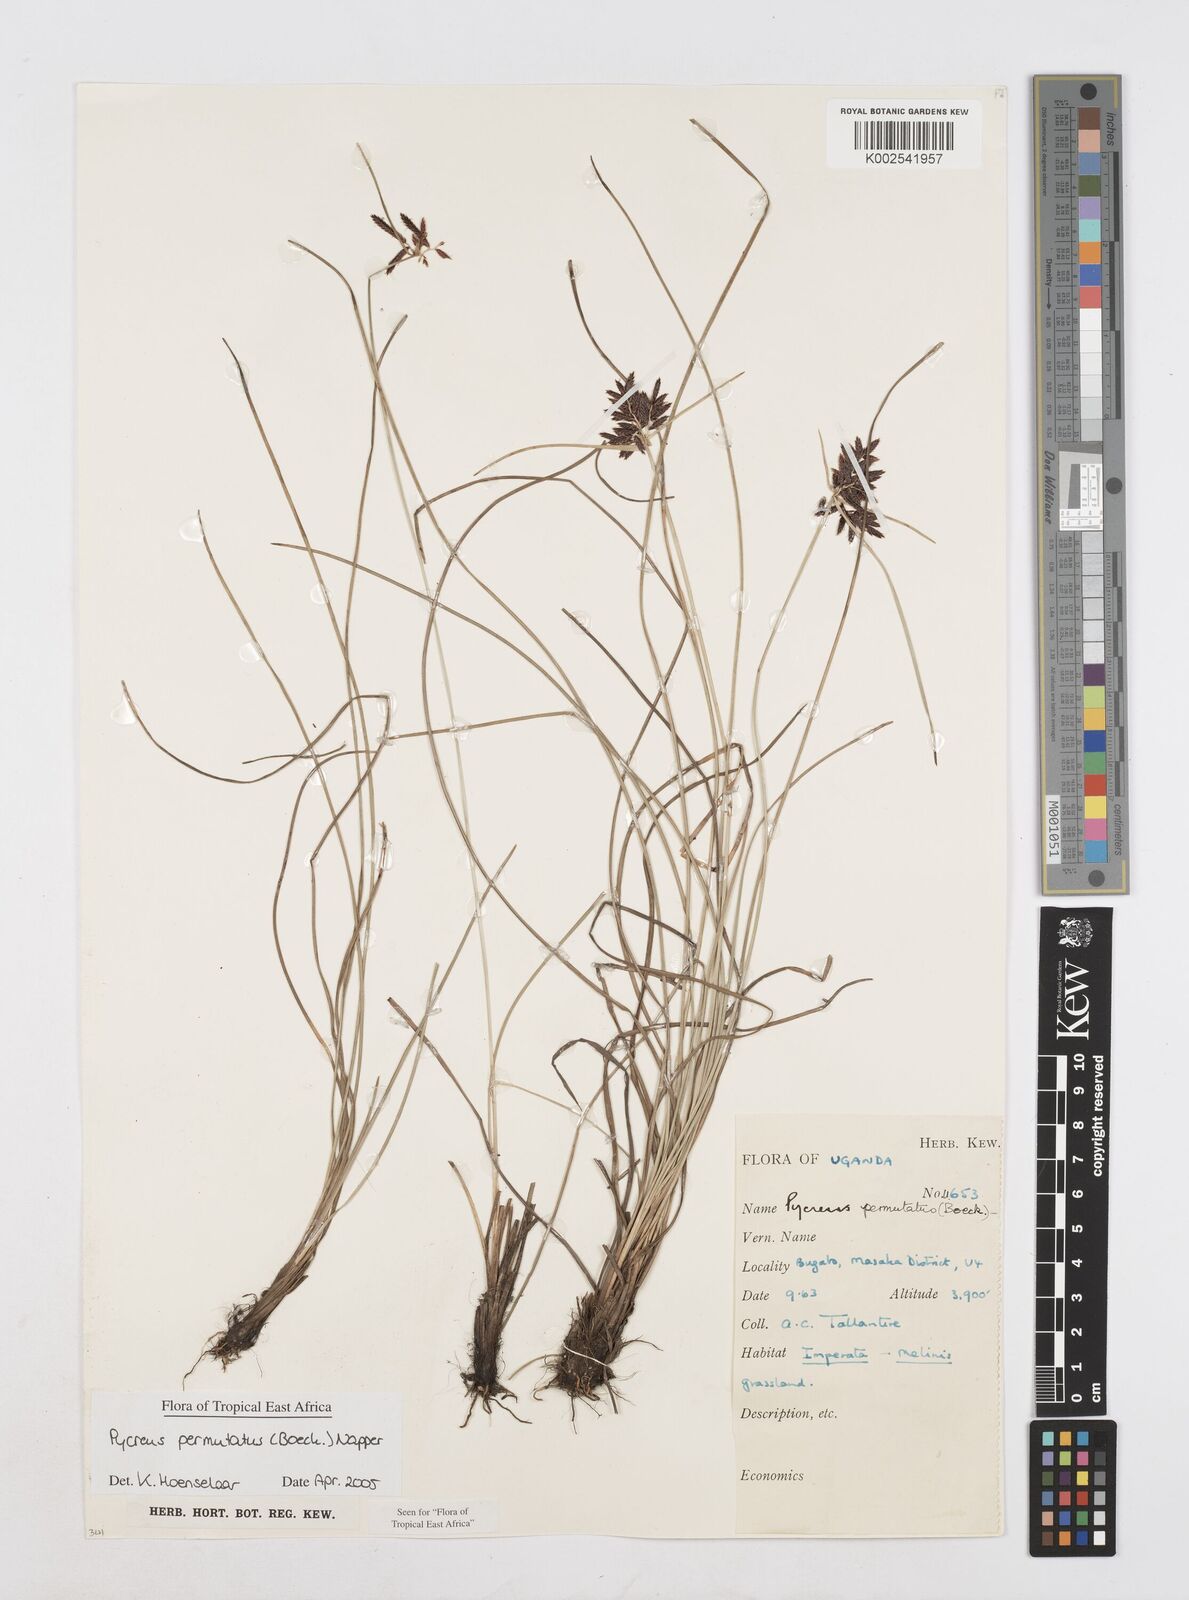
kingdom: Plantae
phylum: Tracheophyta
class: Liliopsida
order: Poales
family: Cyperaceae
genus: Cyperus
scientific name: Cyperus nigricans
